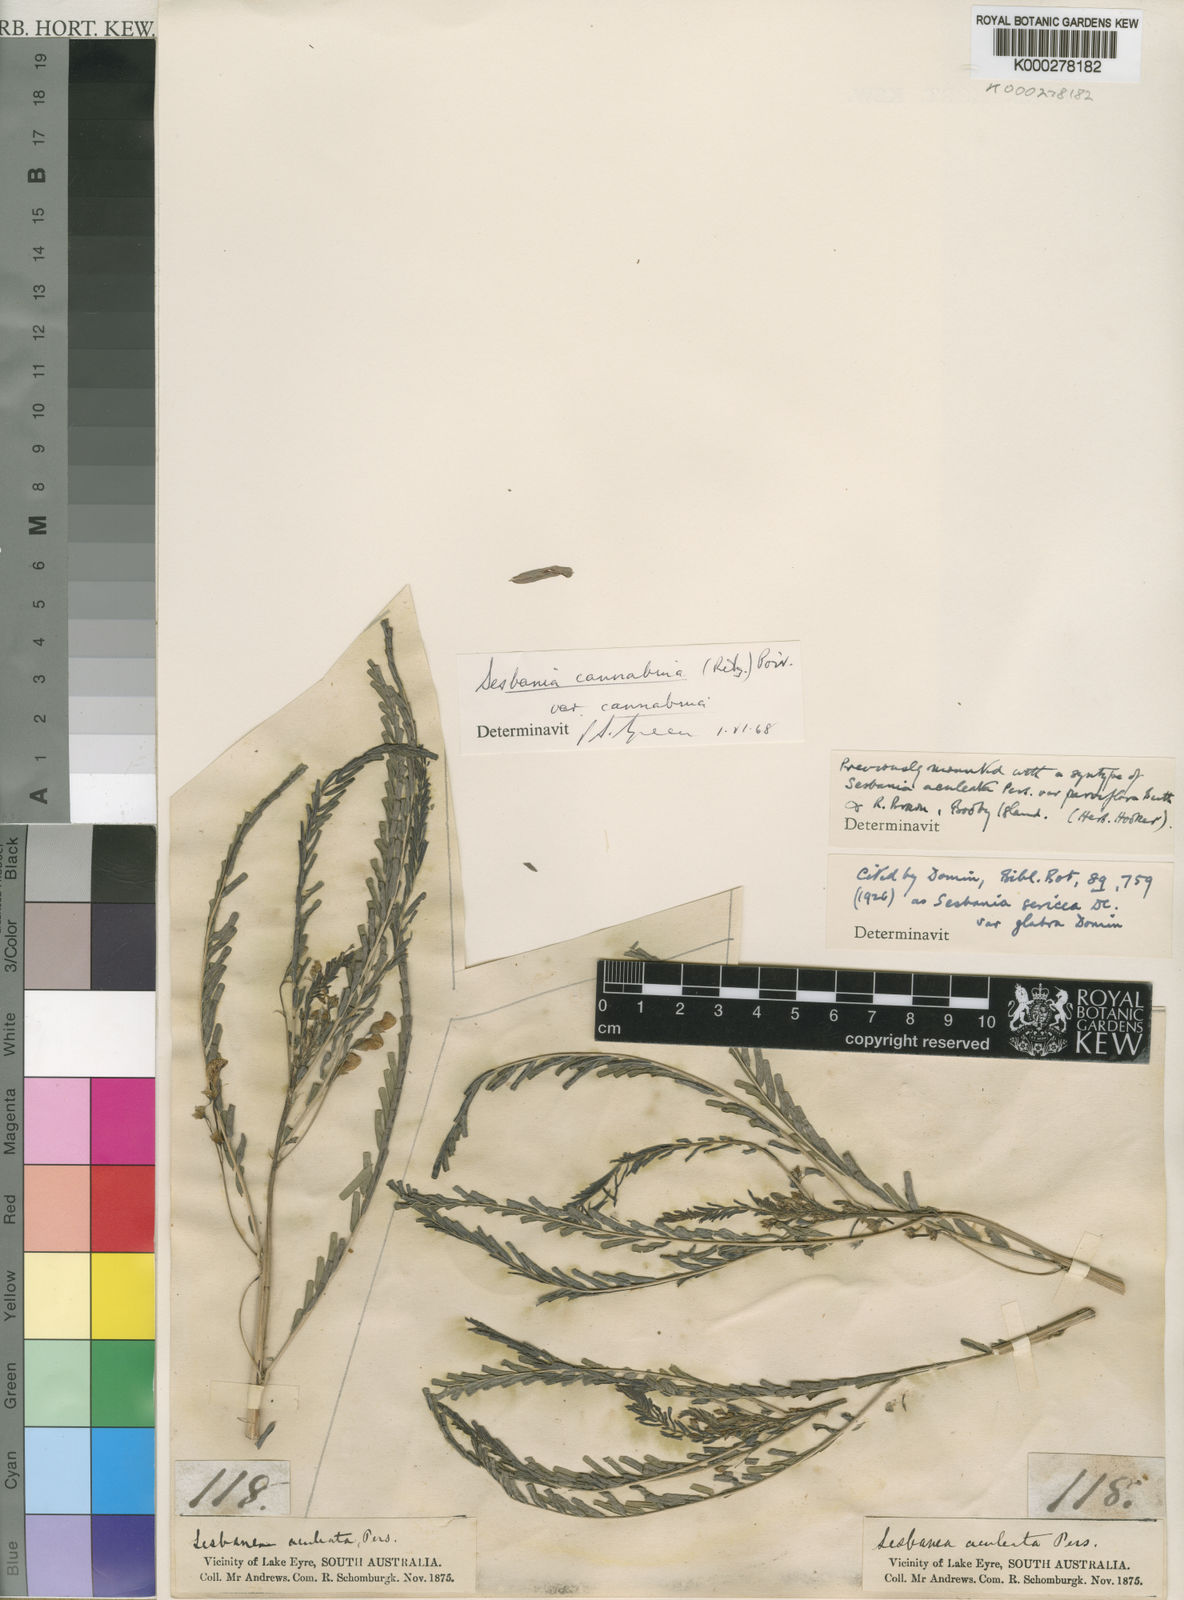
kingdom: Plantae
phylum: Tracheophyta
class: Magnoliopsida
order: Fabales
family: Fabaceae
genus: Sesbania
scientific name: Sesbania cannabina
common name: Canicha
